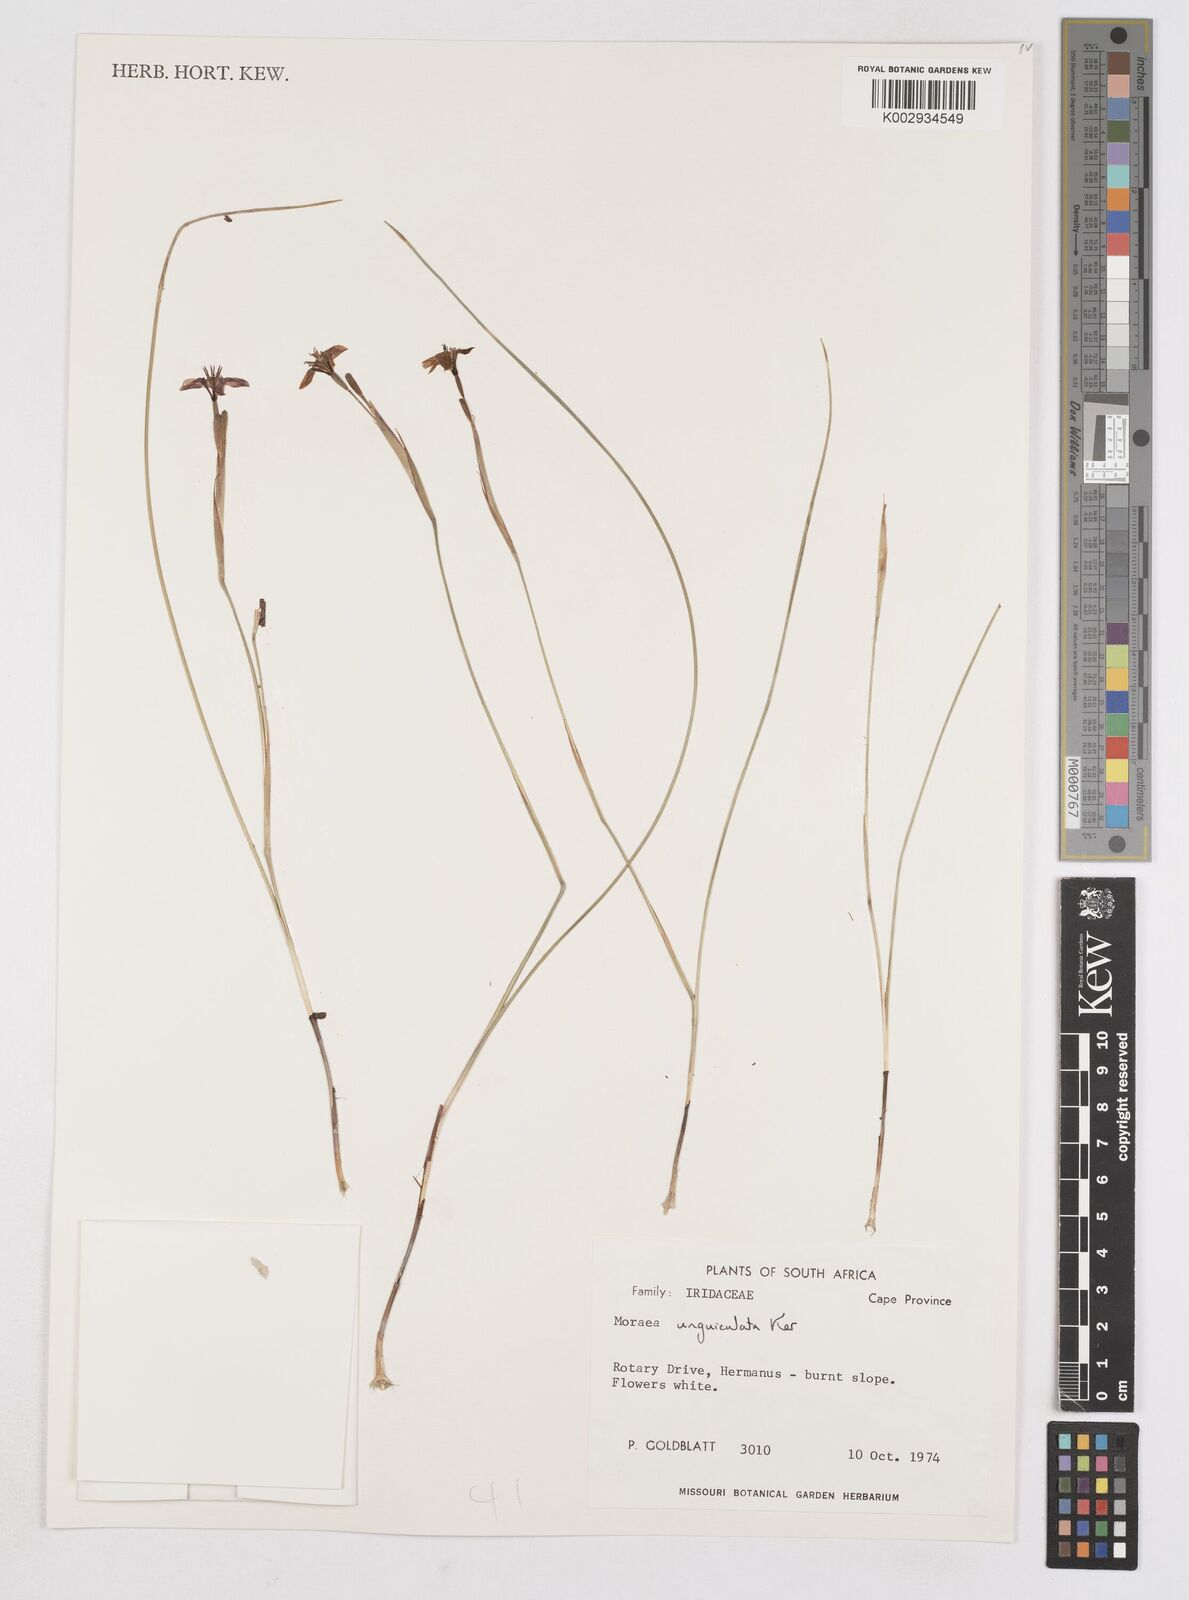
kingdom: Plantae
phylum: Tracheophyta
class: Liliopsida
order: Asparagales
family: Iridaceae
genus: Moraea
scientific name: Moraea unguiculata
